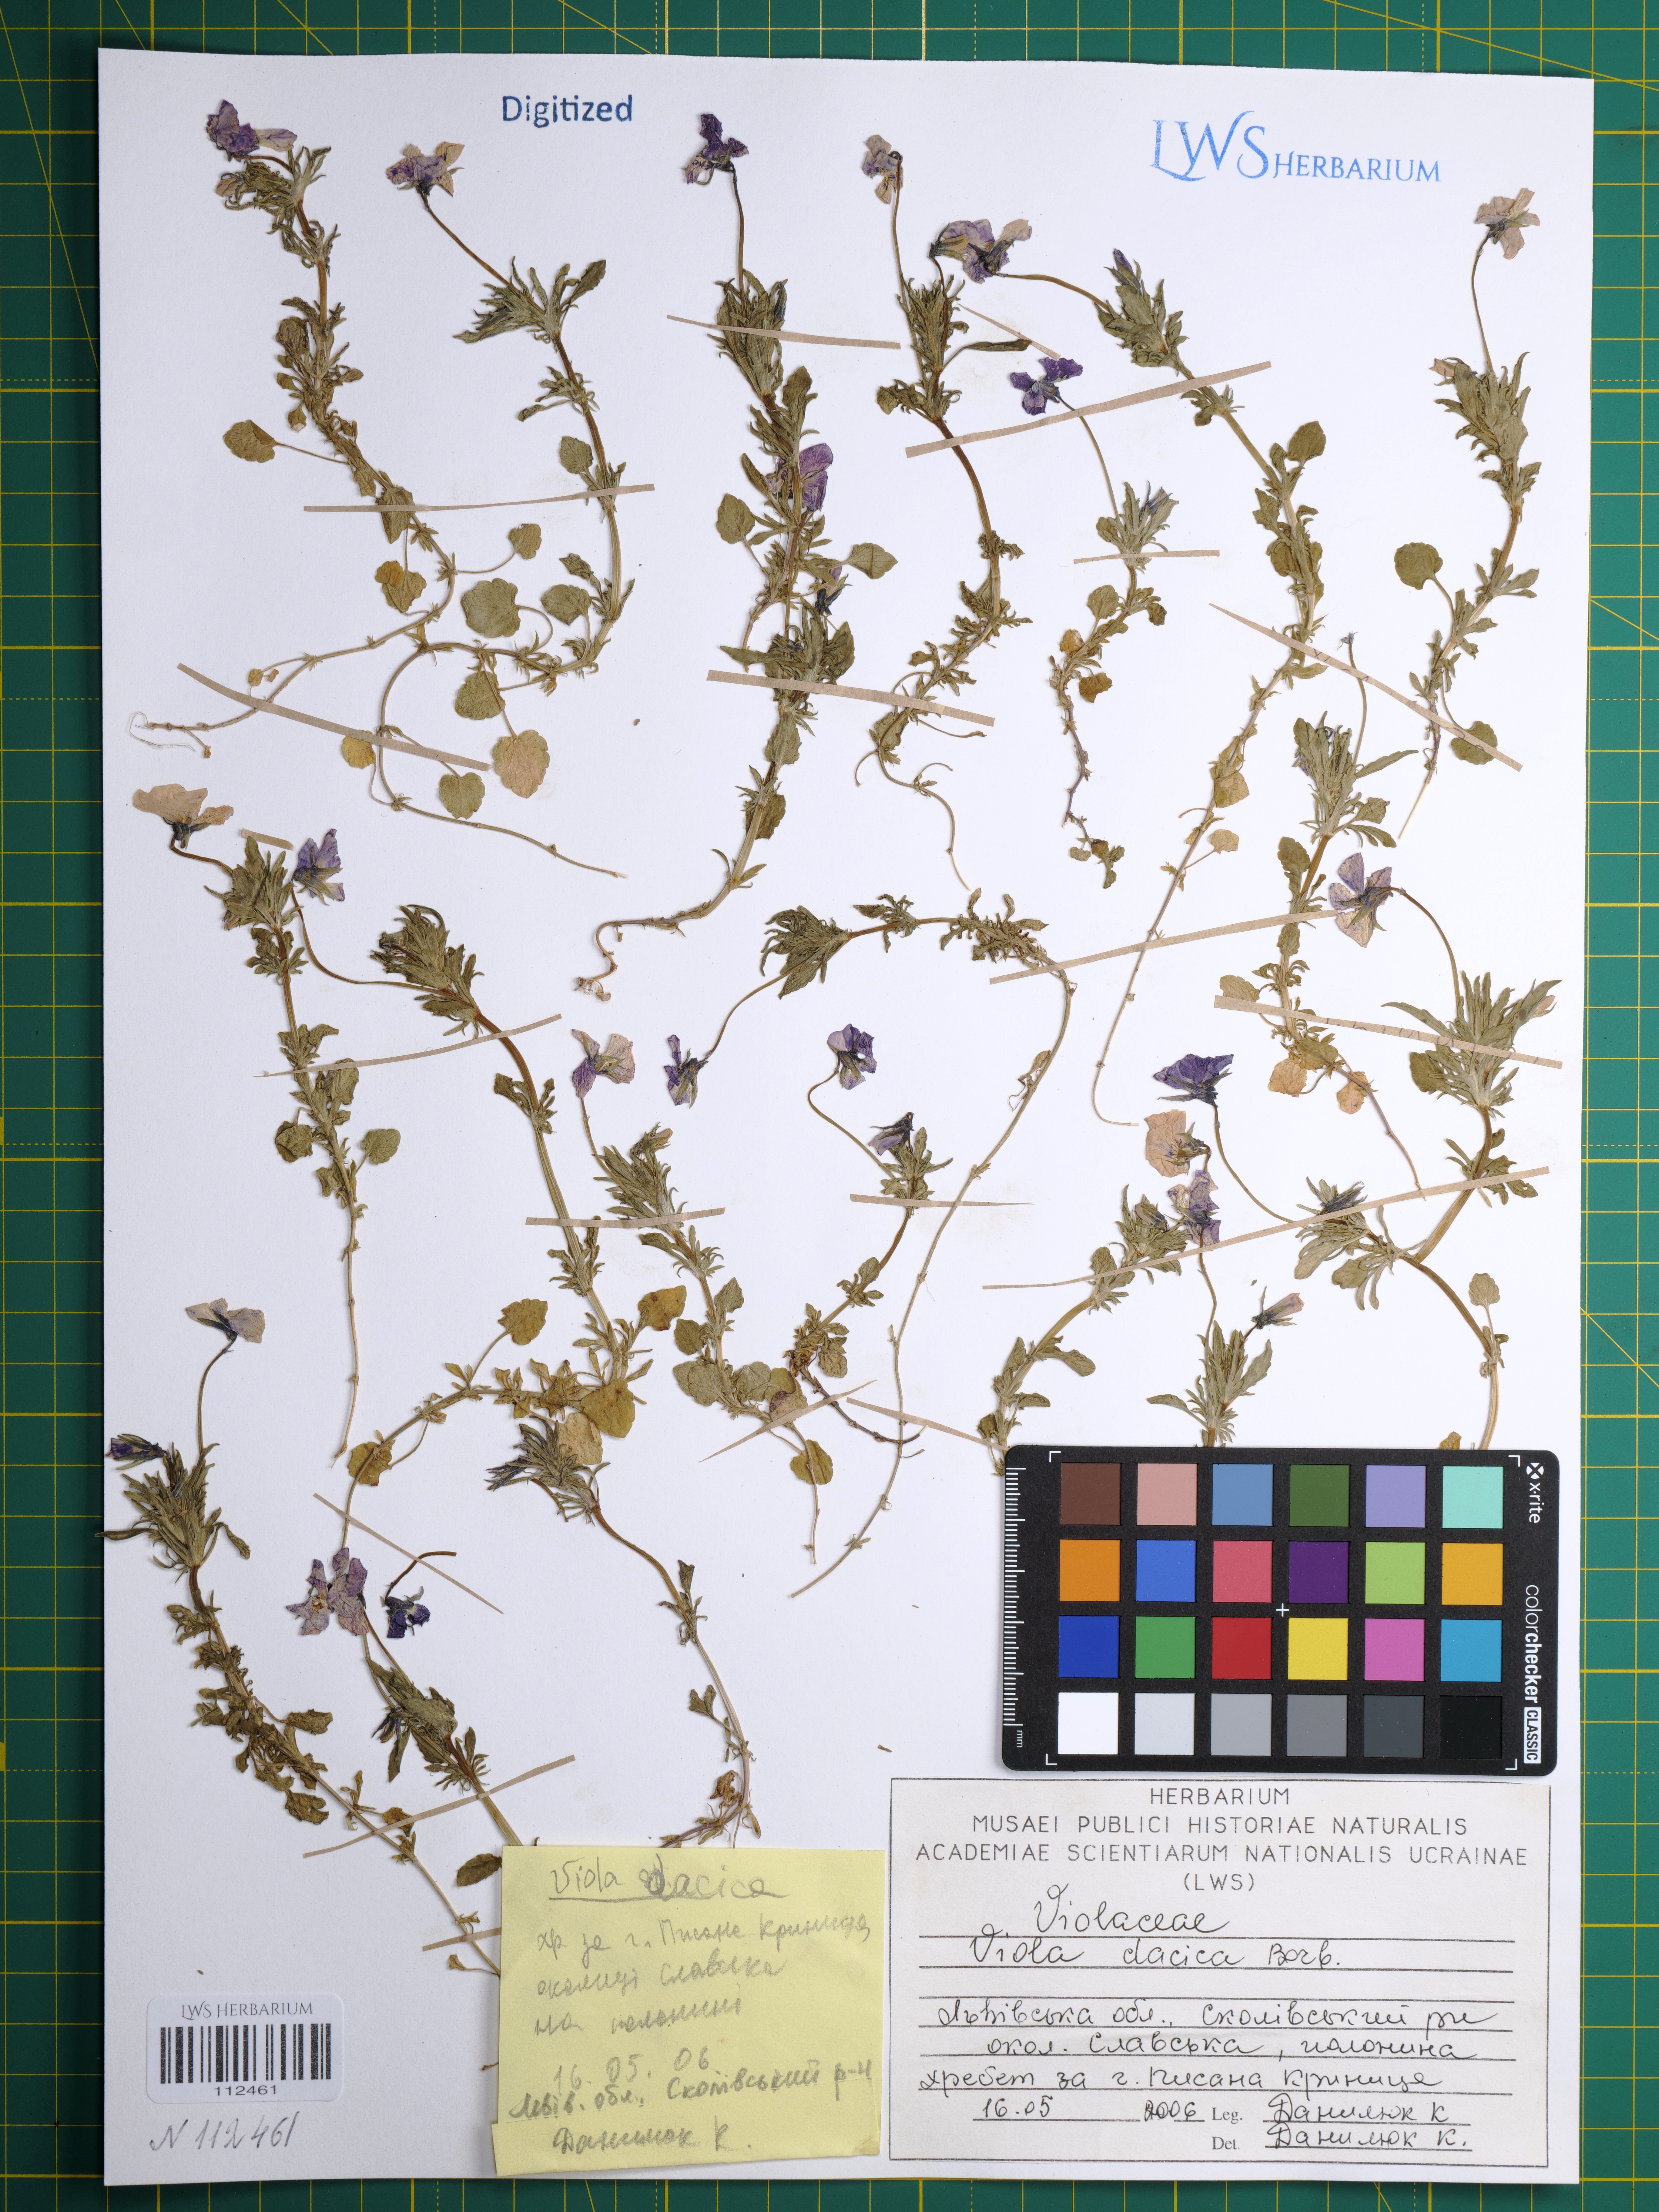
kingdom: Plantae
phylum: Tracheophyta
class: Magnoliopsida
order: Malpighiales
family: Violaceae
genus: Viola
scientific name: Viola dacica
